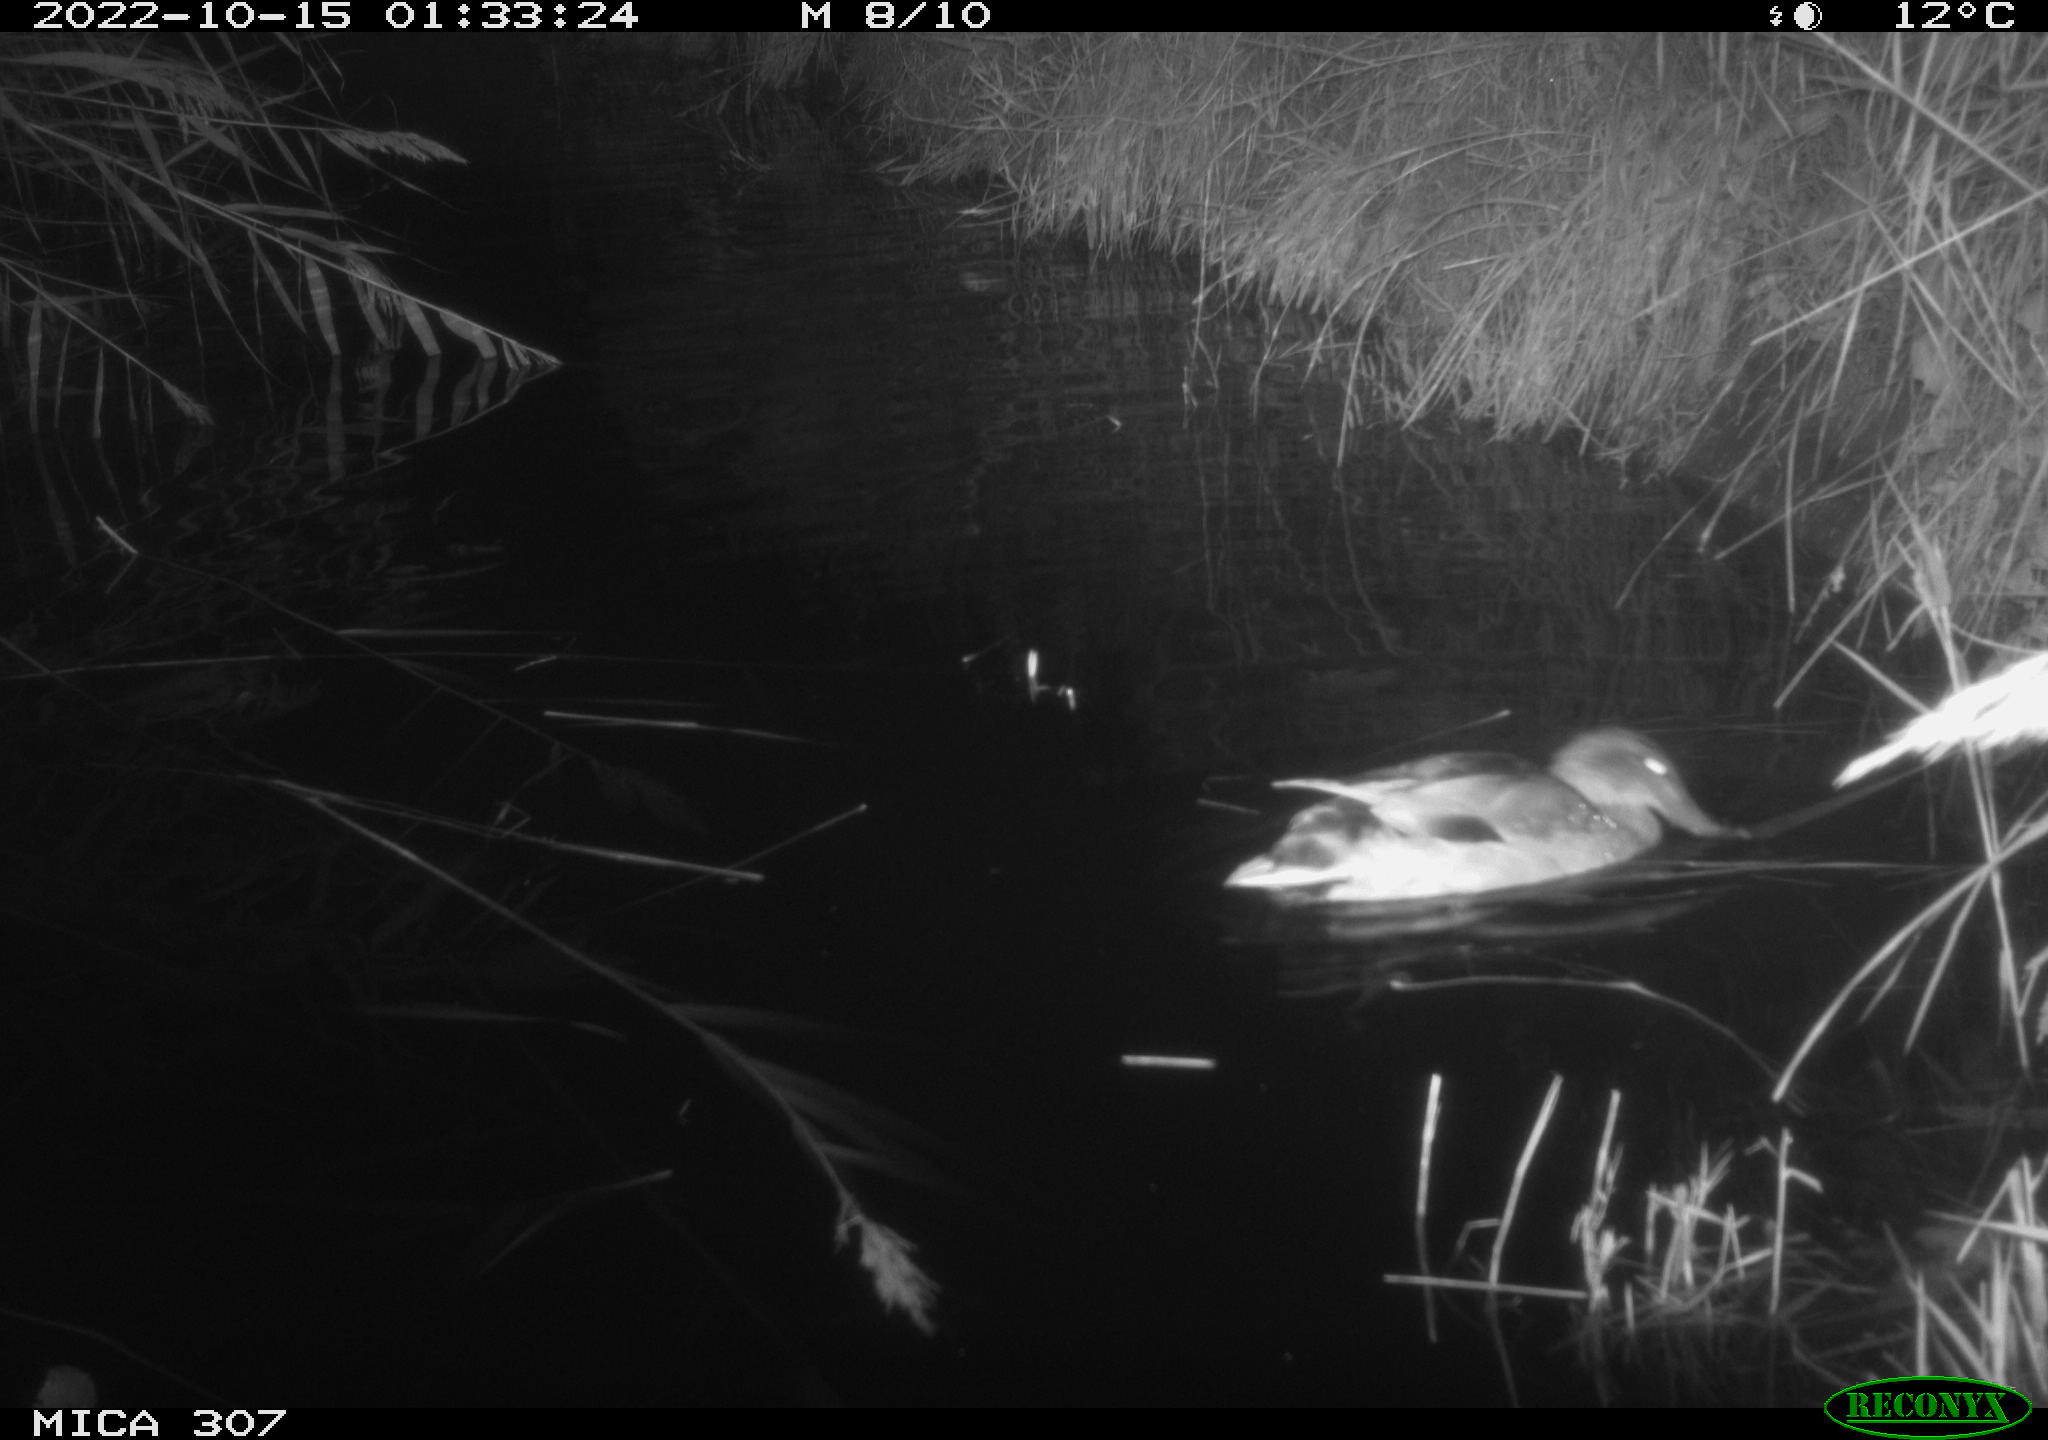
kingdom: Animalia
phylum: Chordata
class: Aves
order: Anseriformes
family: Anatidae
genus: Anas
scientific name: Anas
